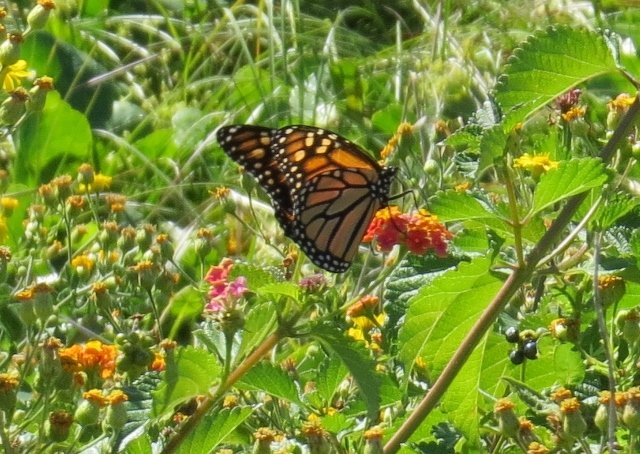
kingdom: Animalia
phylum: Arthropoda
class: Insecta
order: Lepidoptera
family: Nymphalidae
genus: Danaus
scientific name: Danaus plexippus
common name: Monarch
